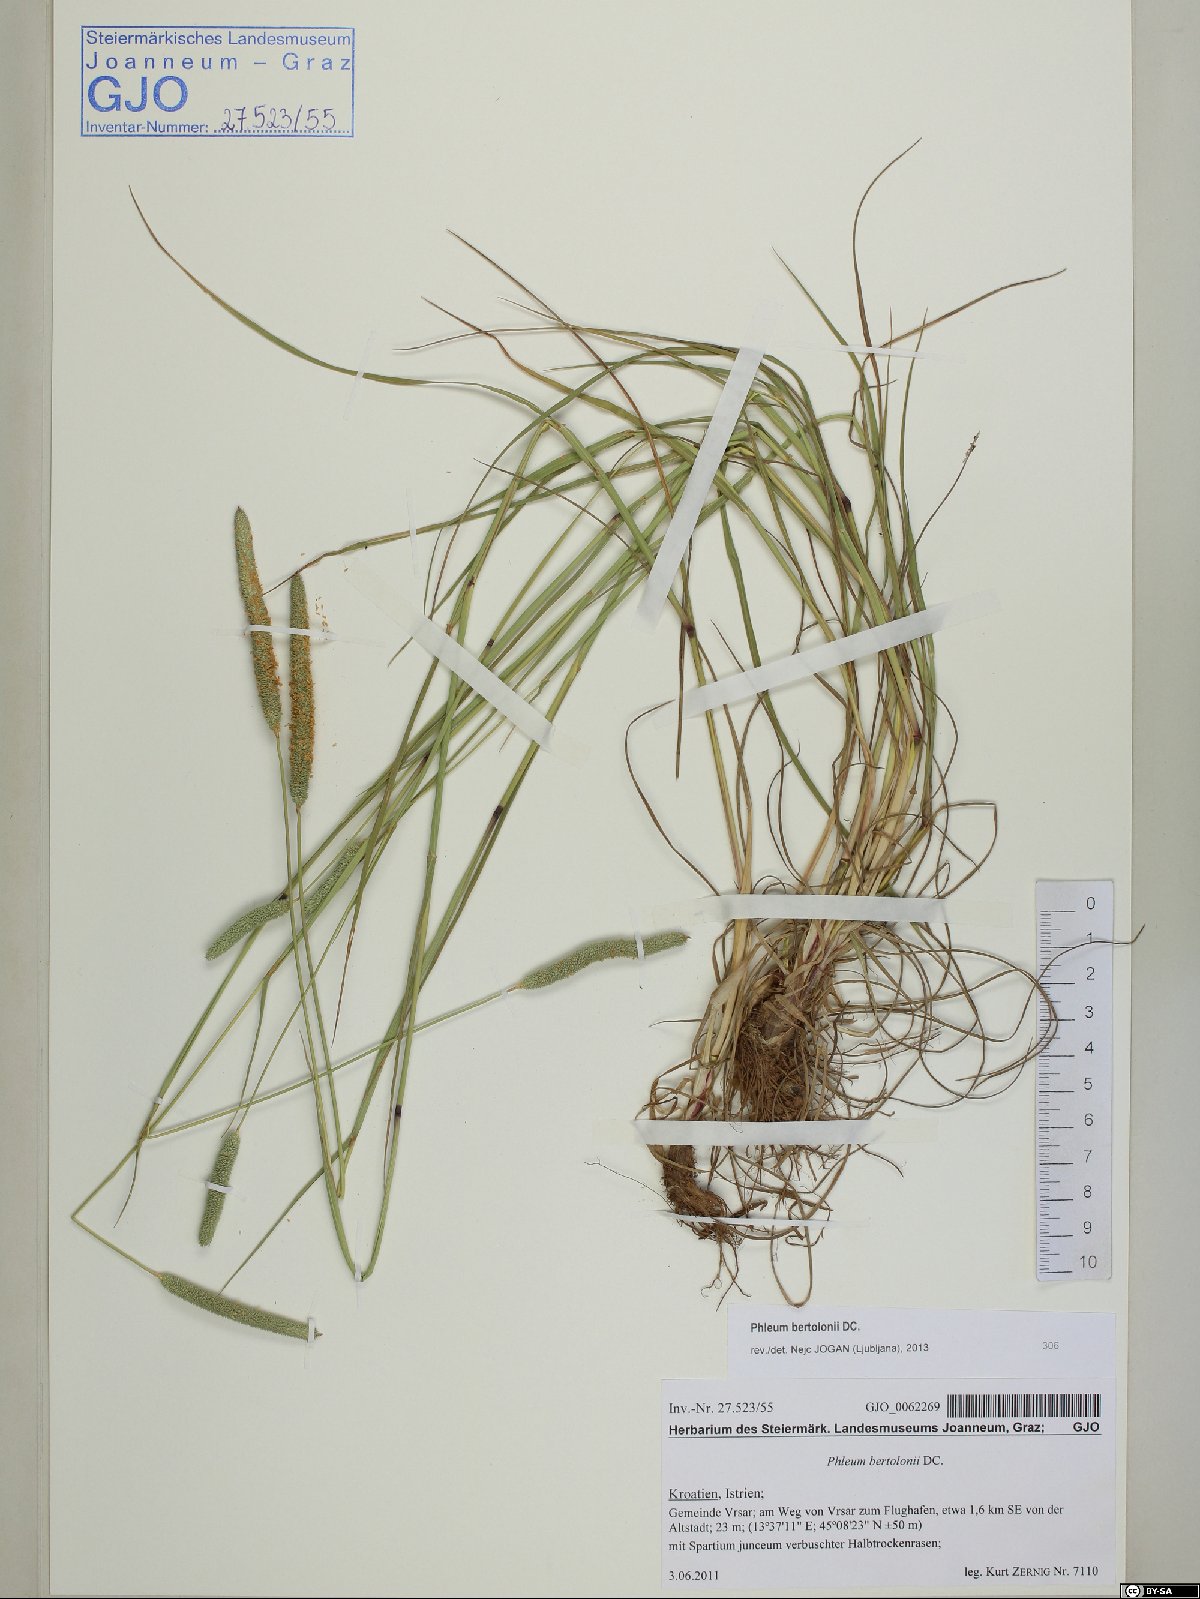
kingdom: Plantae
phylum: Tracheophyta
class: Liliopsida
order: Poales
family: Poaceae
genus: Phleum
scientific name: Phleum bertolonii
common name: Smaller cat's-tail
